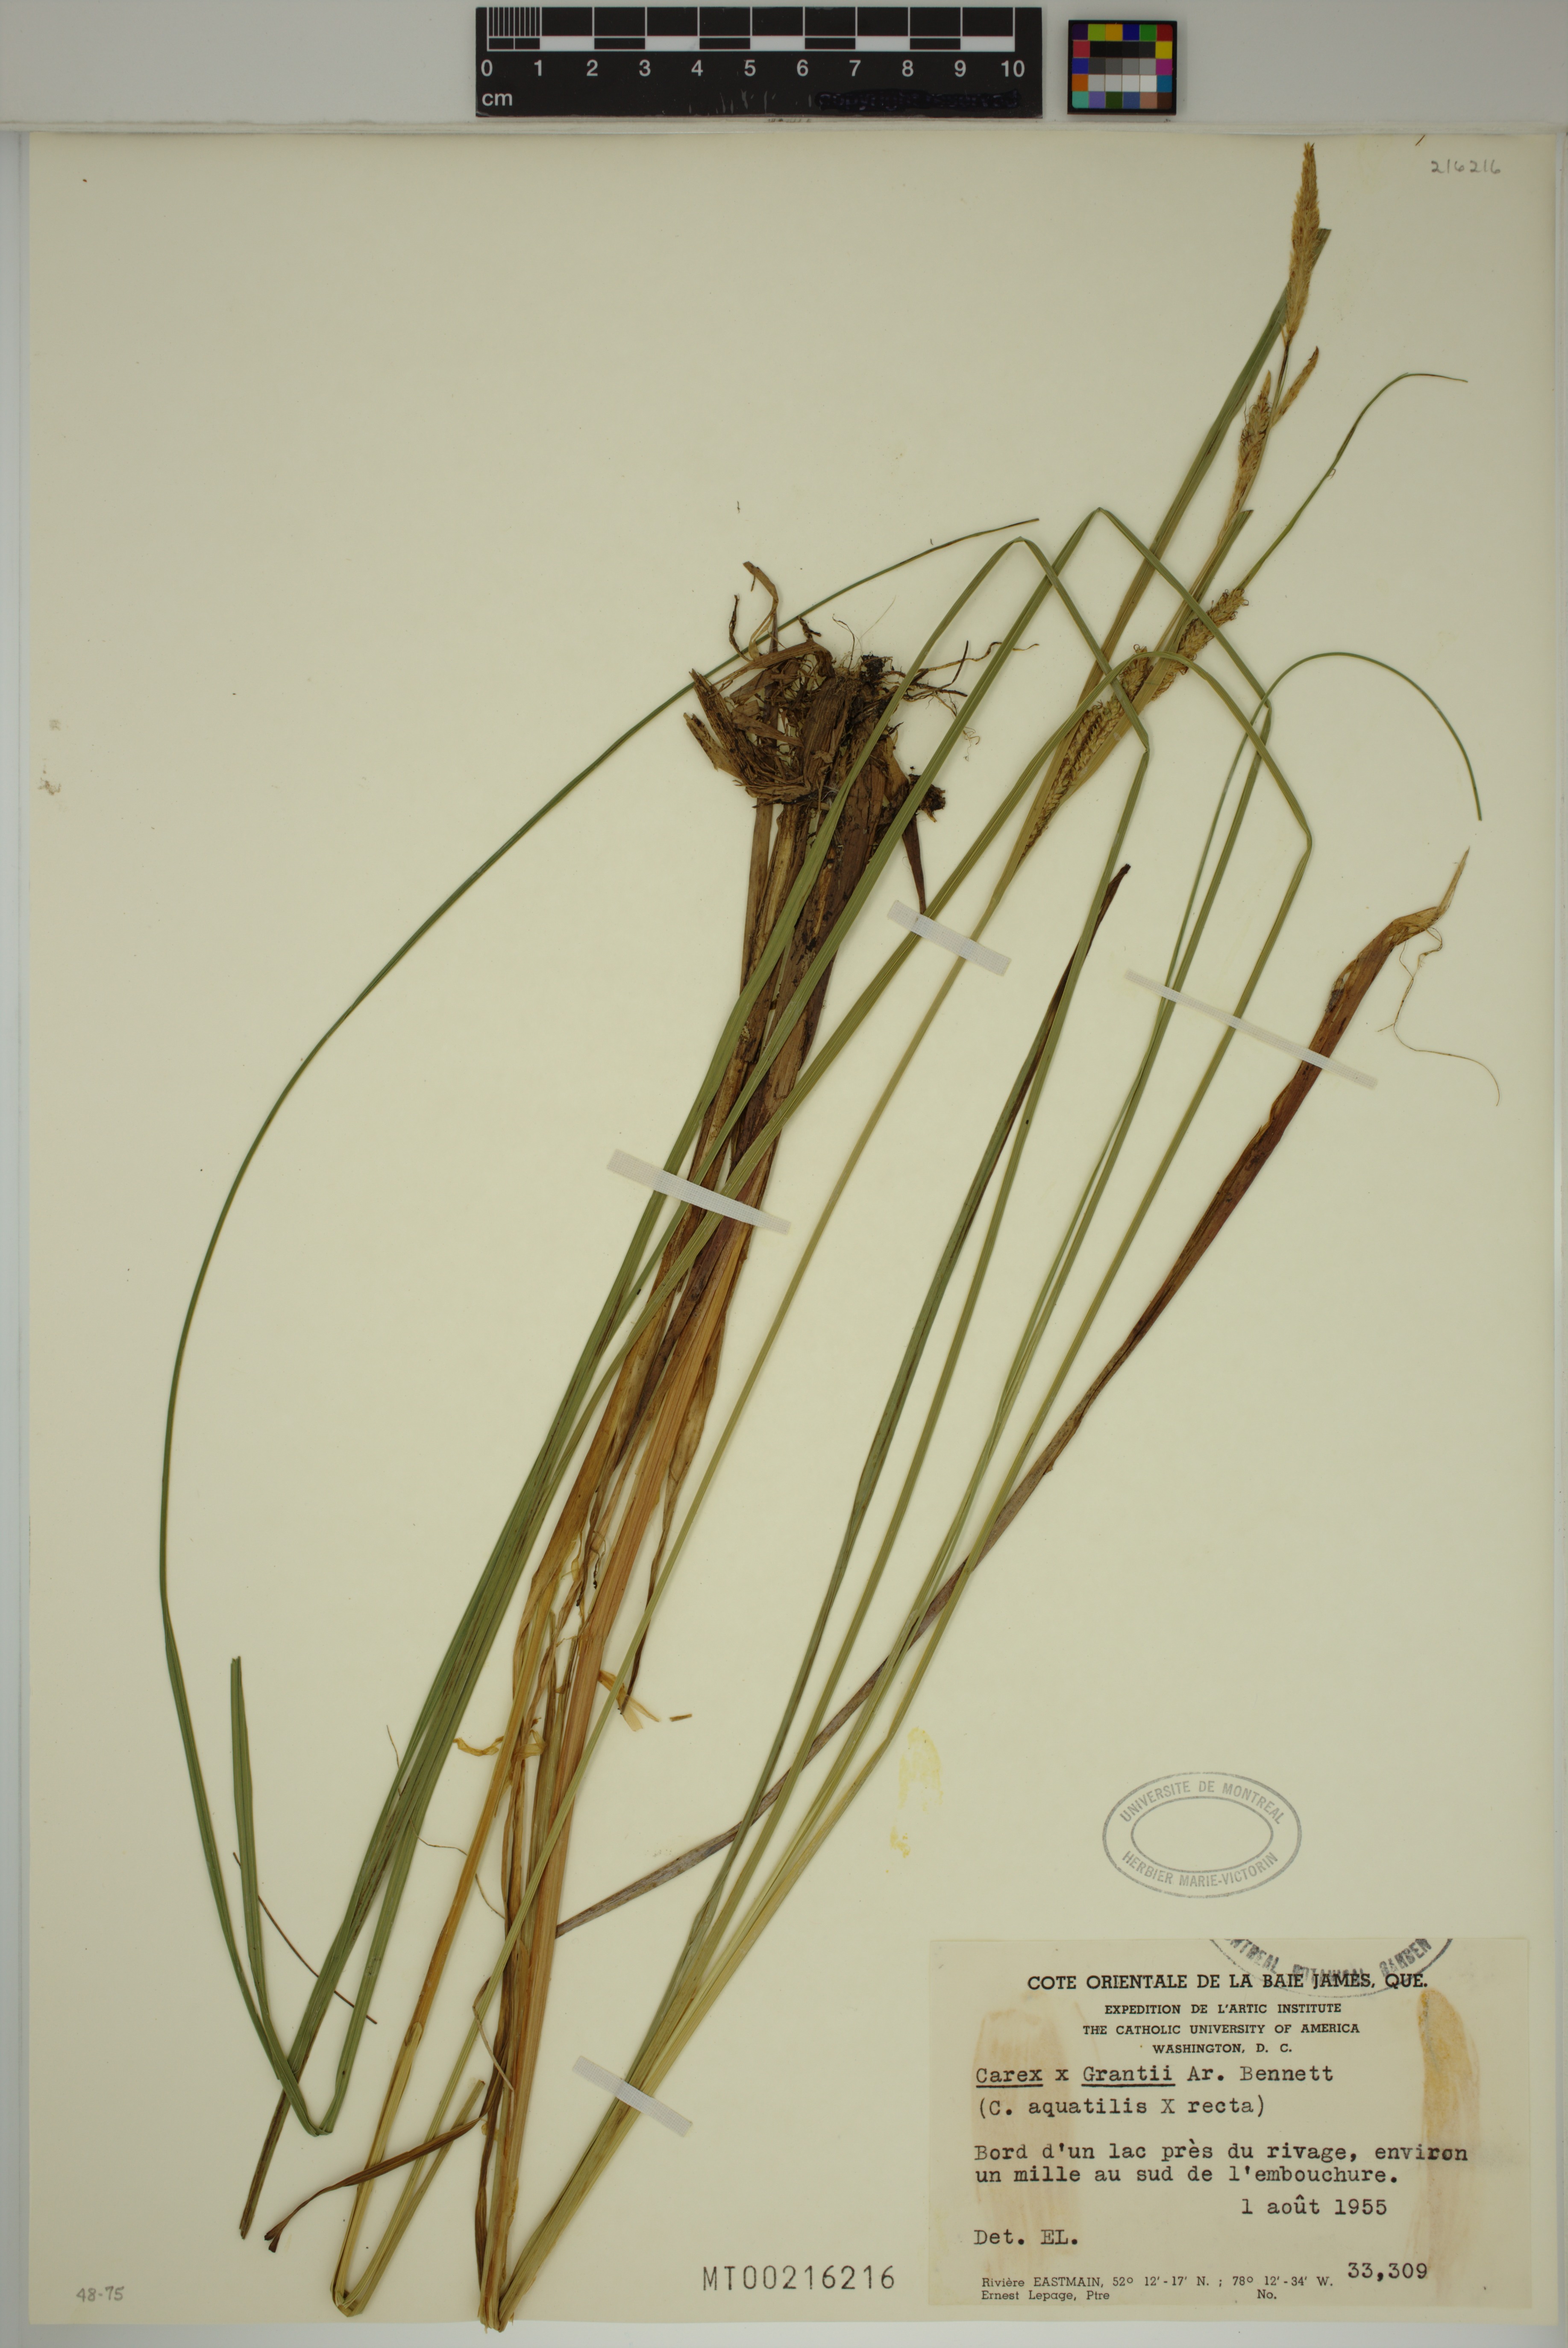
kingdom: Plantae
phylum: Tracheophyta
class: Liliopsida
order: Poales
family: Cyperaceae
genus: Carex
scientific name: Carex grantii
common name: Grant's sedge
